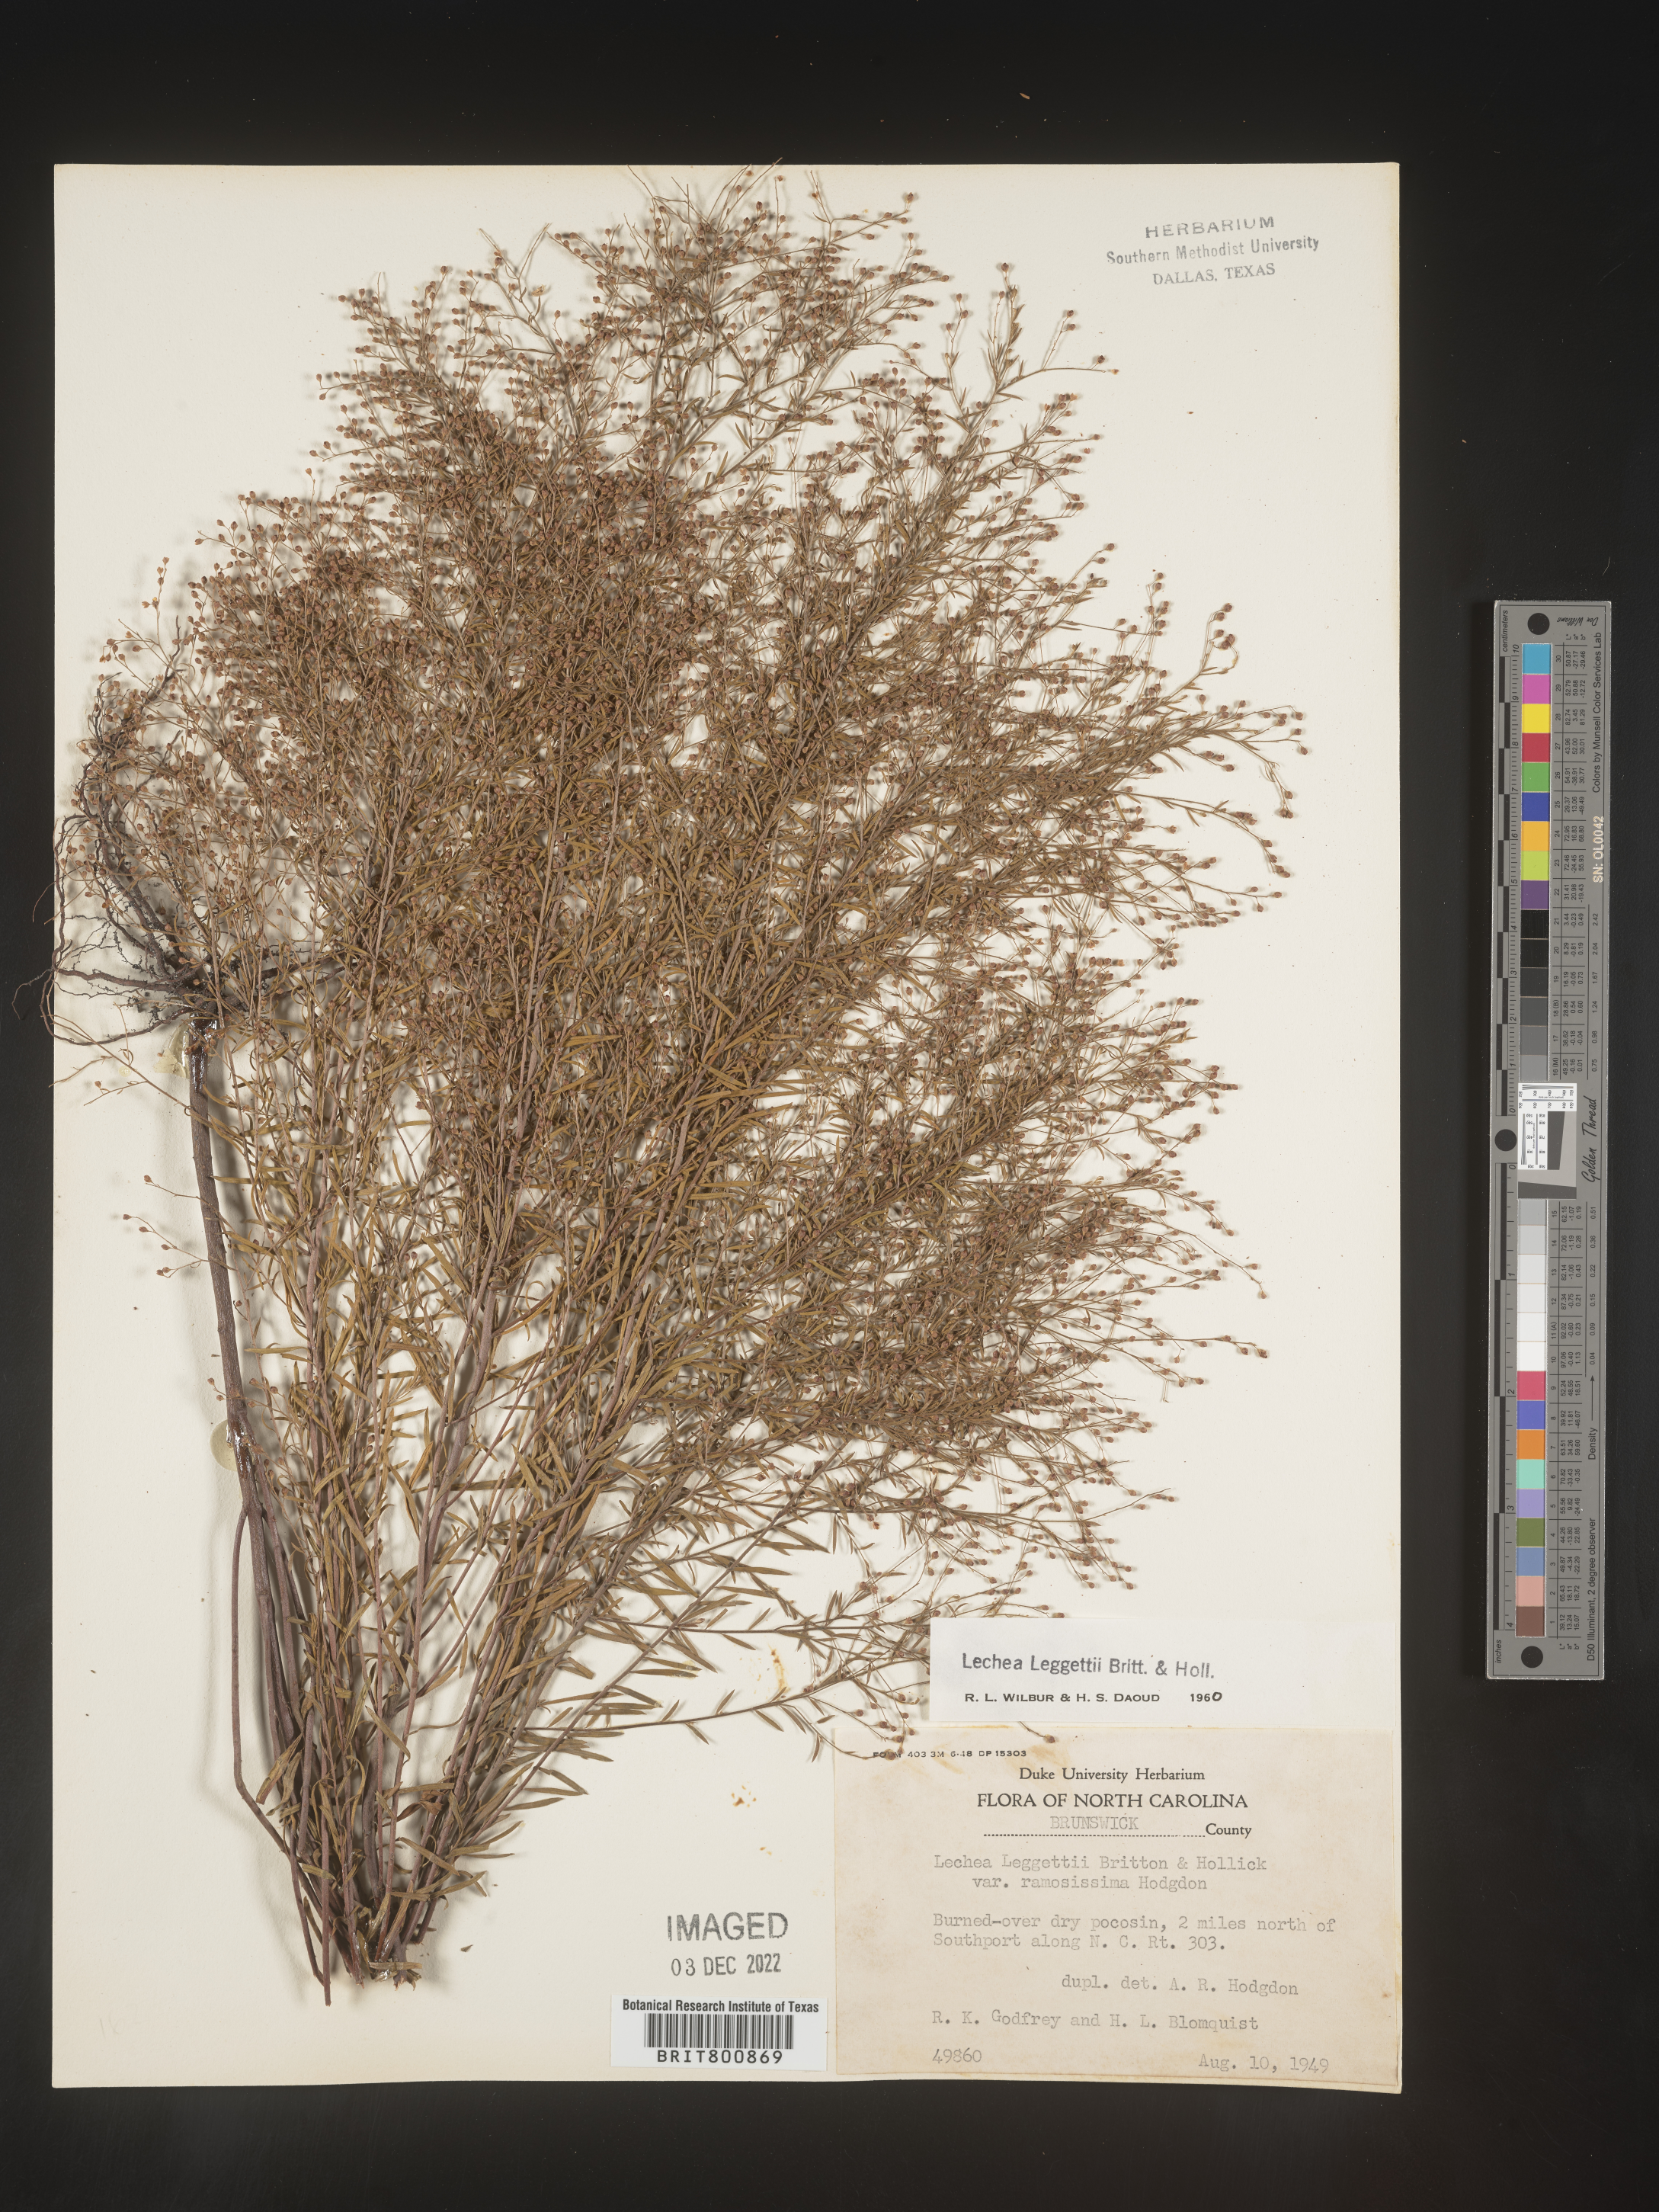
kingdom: Plantae
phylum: Tracheophyta
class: Magnoliopsida
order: Malvales
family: Cistaceae
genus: Lechea
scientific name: Lechea pulchella
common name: Leggett's pinweed
